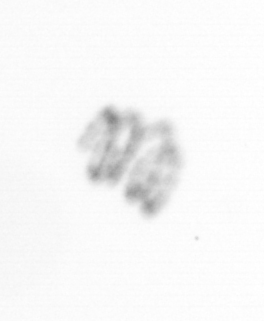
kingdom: Chromista
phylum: Ochrophyta
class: Bacillariophyceae
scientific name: Bacillariophyceae
